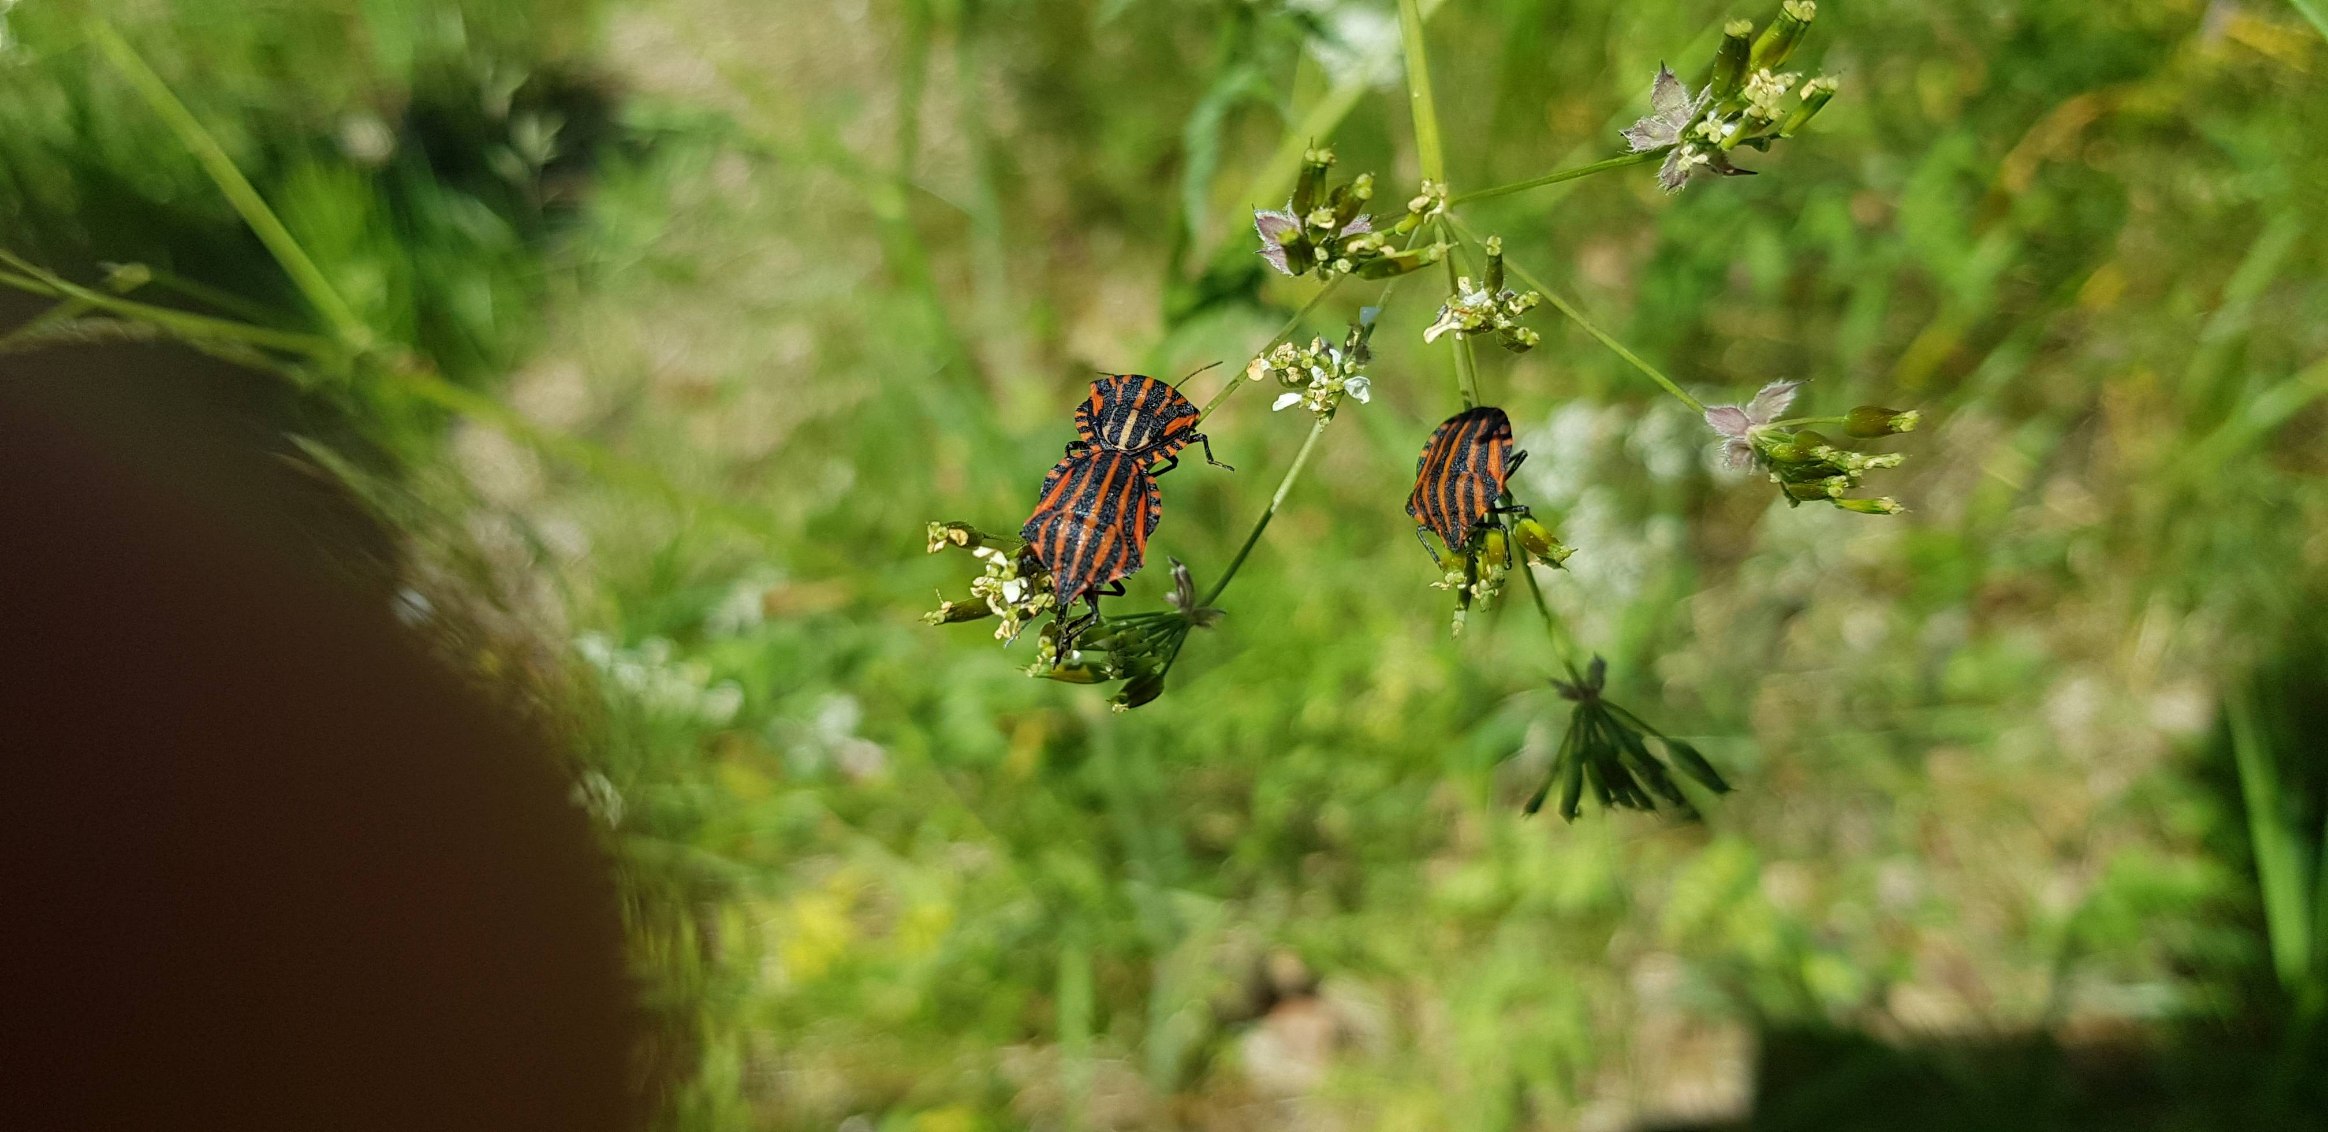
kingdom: Animalia
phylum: Arthropoda
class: Insecta
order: Hemiptera
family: Pentatomidae
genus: Graphosoma
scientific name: Graphosoma italicum
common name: Stribetæge
